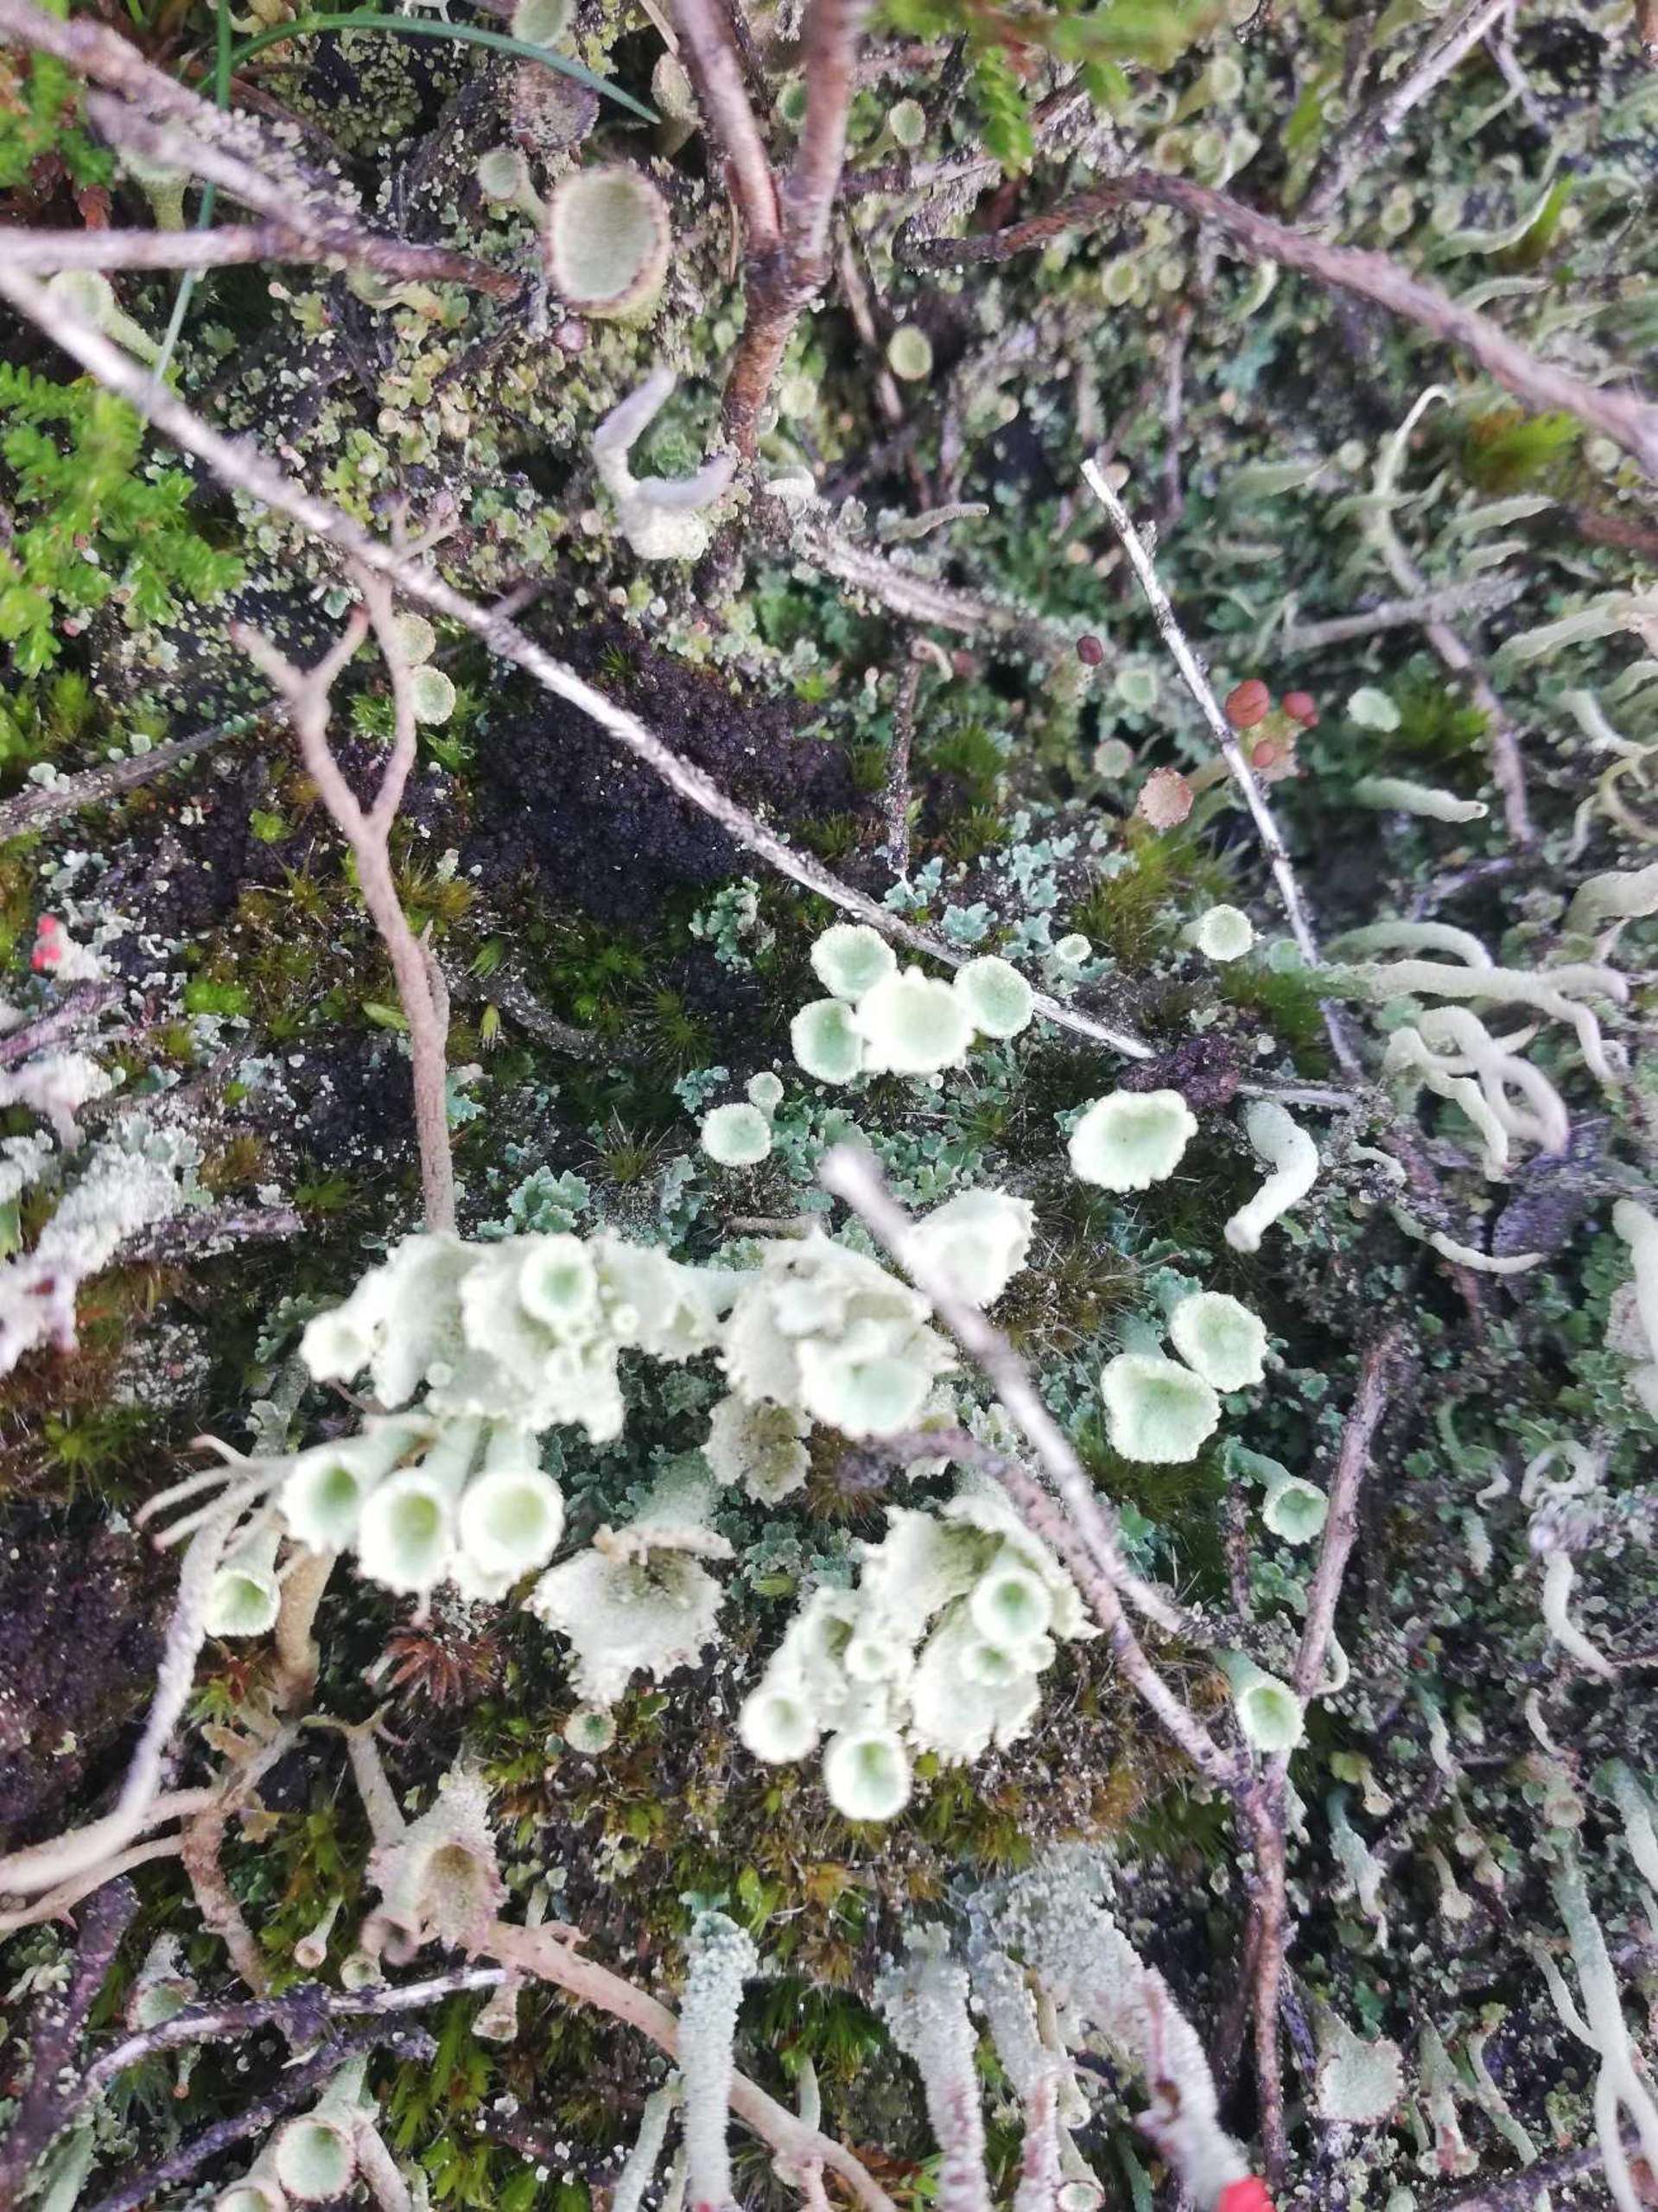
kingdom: Fungi
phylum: Ascomycota
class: Lecanoromycetes
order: Lecanorales
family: Cladoniaceae
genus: Cladonia
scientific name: Cladonia
